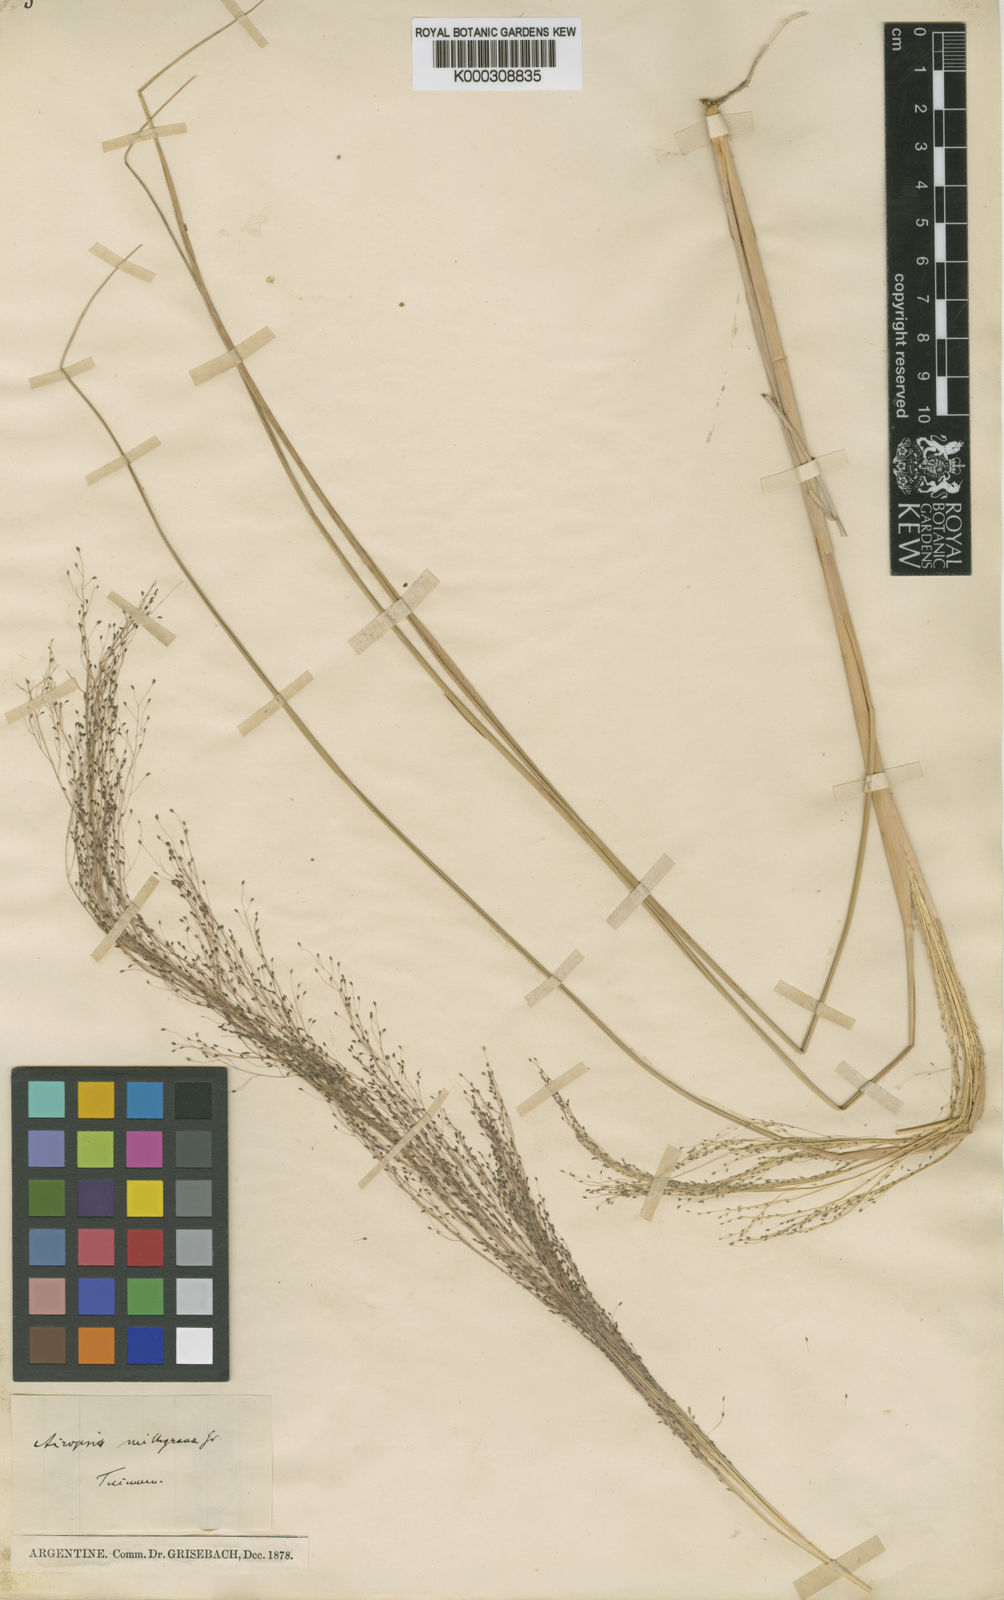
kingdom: Plantae
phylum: Tracheophyta
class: Liliopsida
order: Poales
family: Poaceae
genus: Eragrostis
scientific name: Eragrostis airoides
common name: Darnel lovegrass
